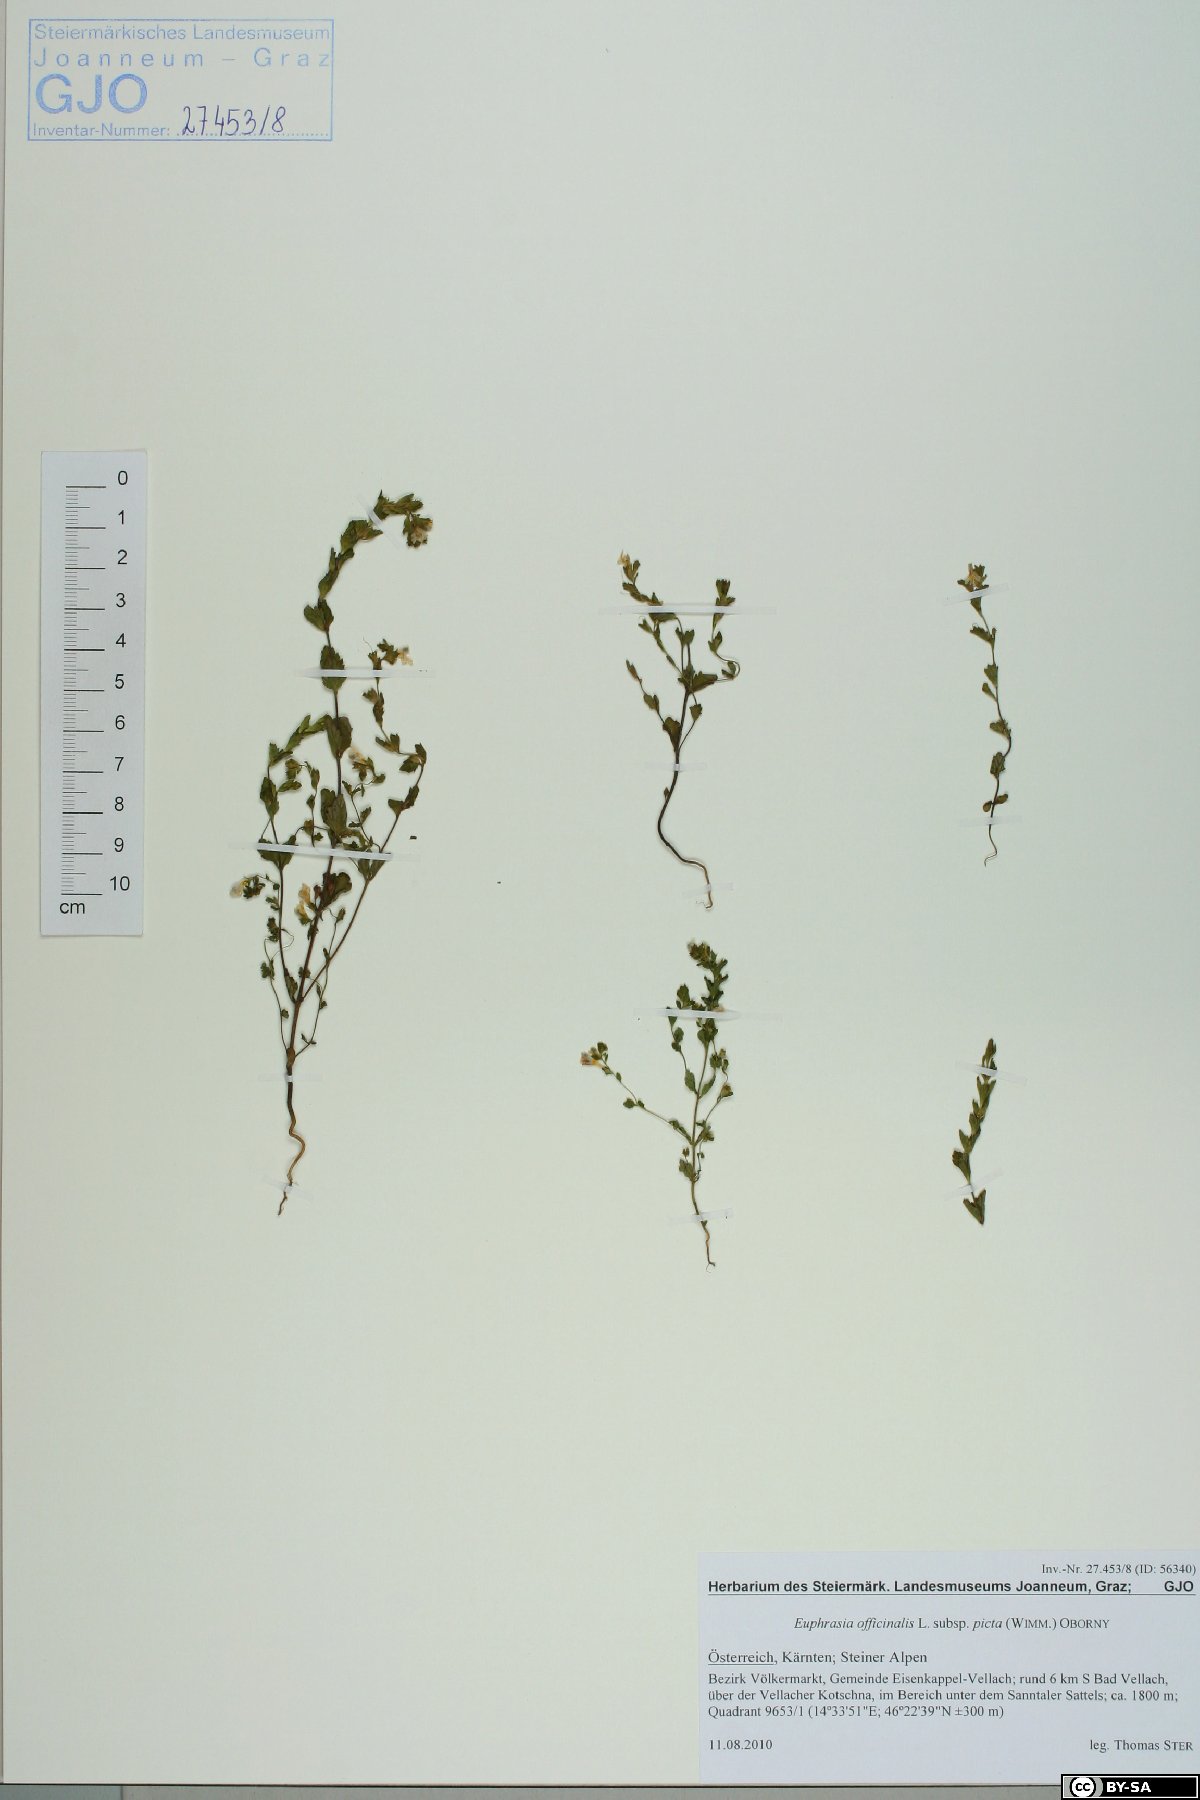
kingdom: Plantae
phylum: Tracheophyta
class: Magnoliopsida
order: Lamiales
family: Orobanchaceae
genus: Euphrasia
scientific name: Euphrasia officinalis
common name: Eyebright
